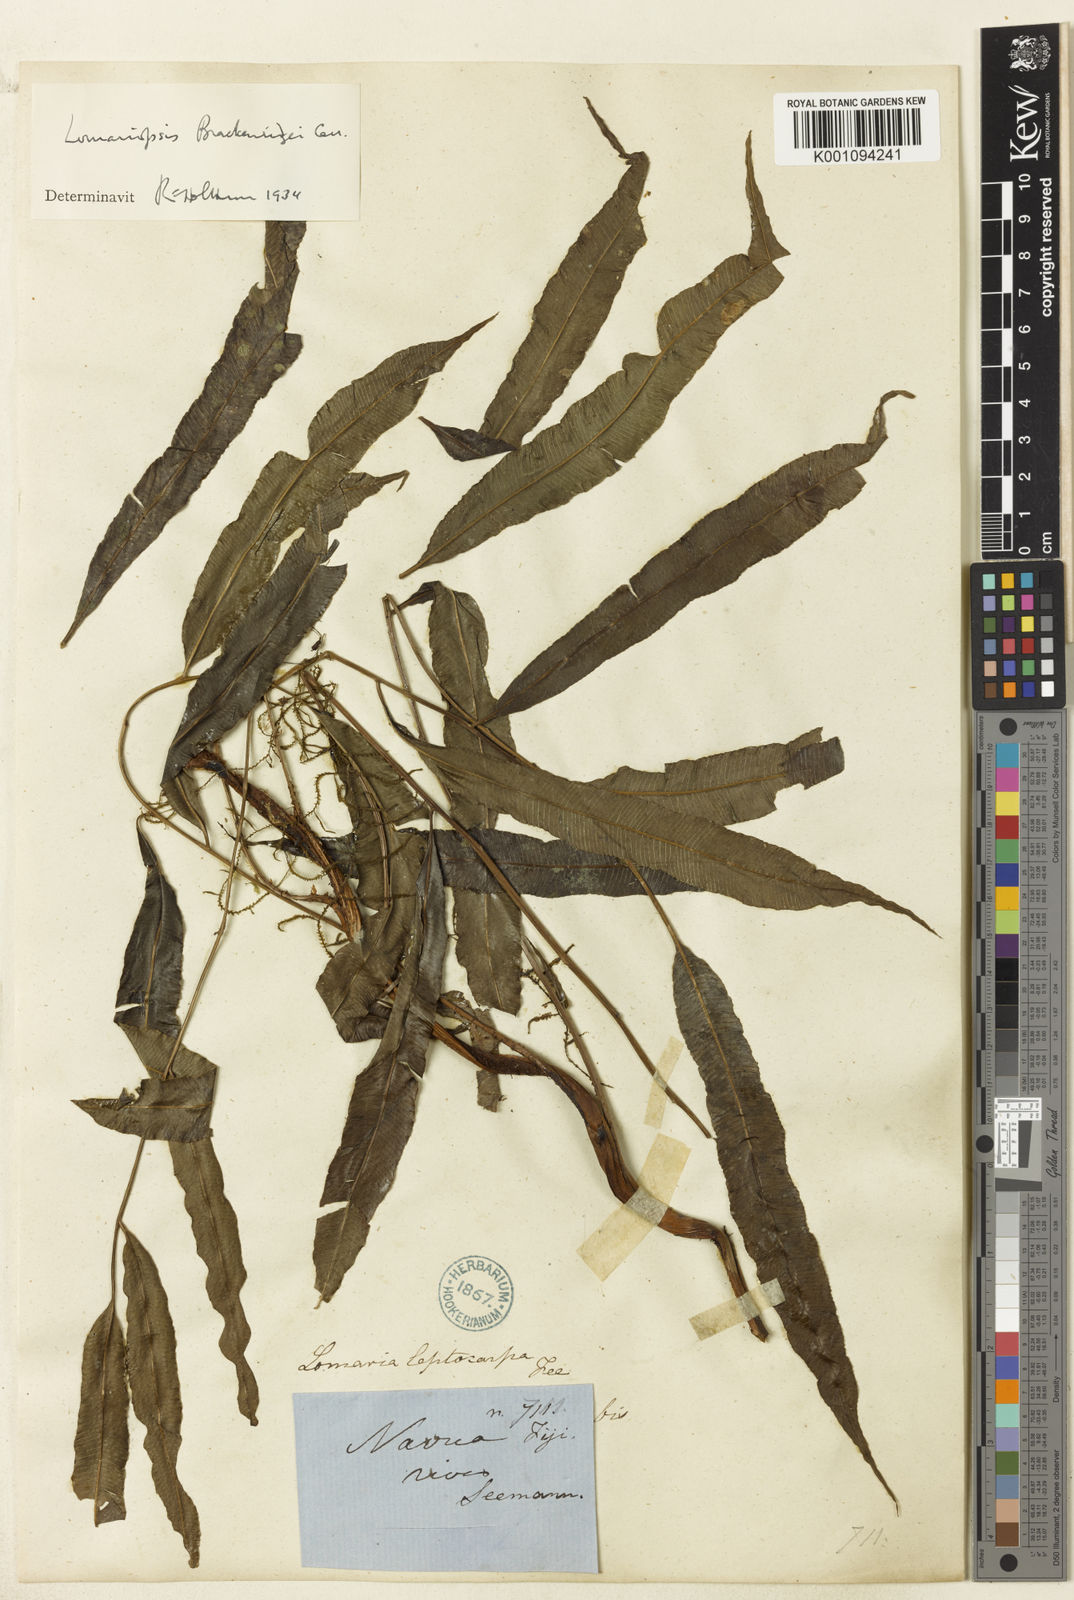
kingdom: Plantae
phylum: Tracheophyta
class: Polypodiopsida
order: Polypodiales
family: Lomariopsidaceae
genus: Lomariopsis
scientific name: Lomariopsis brackenridgei
